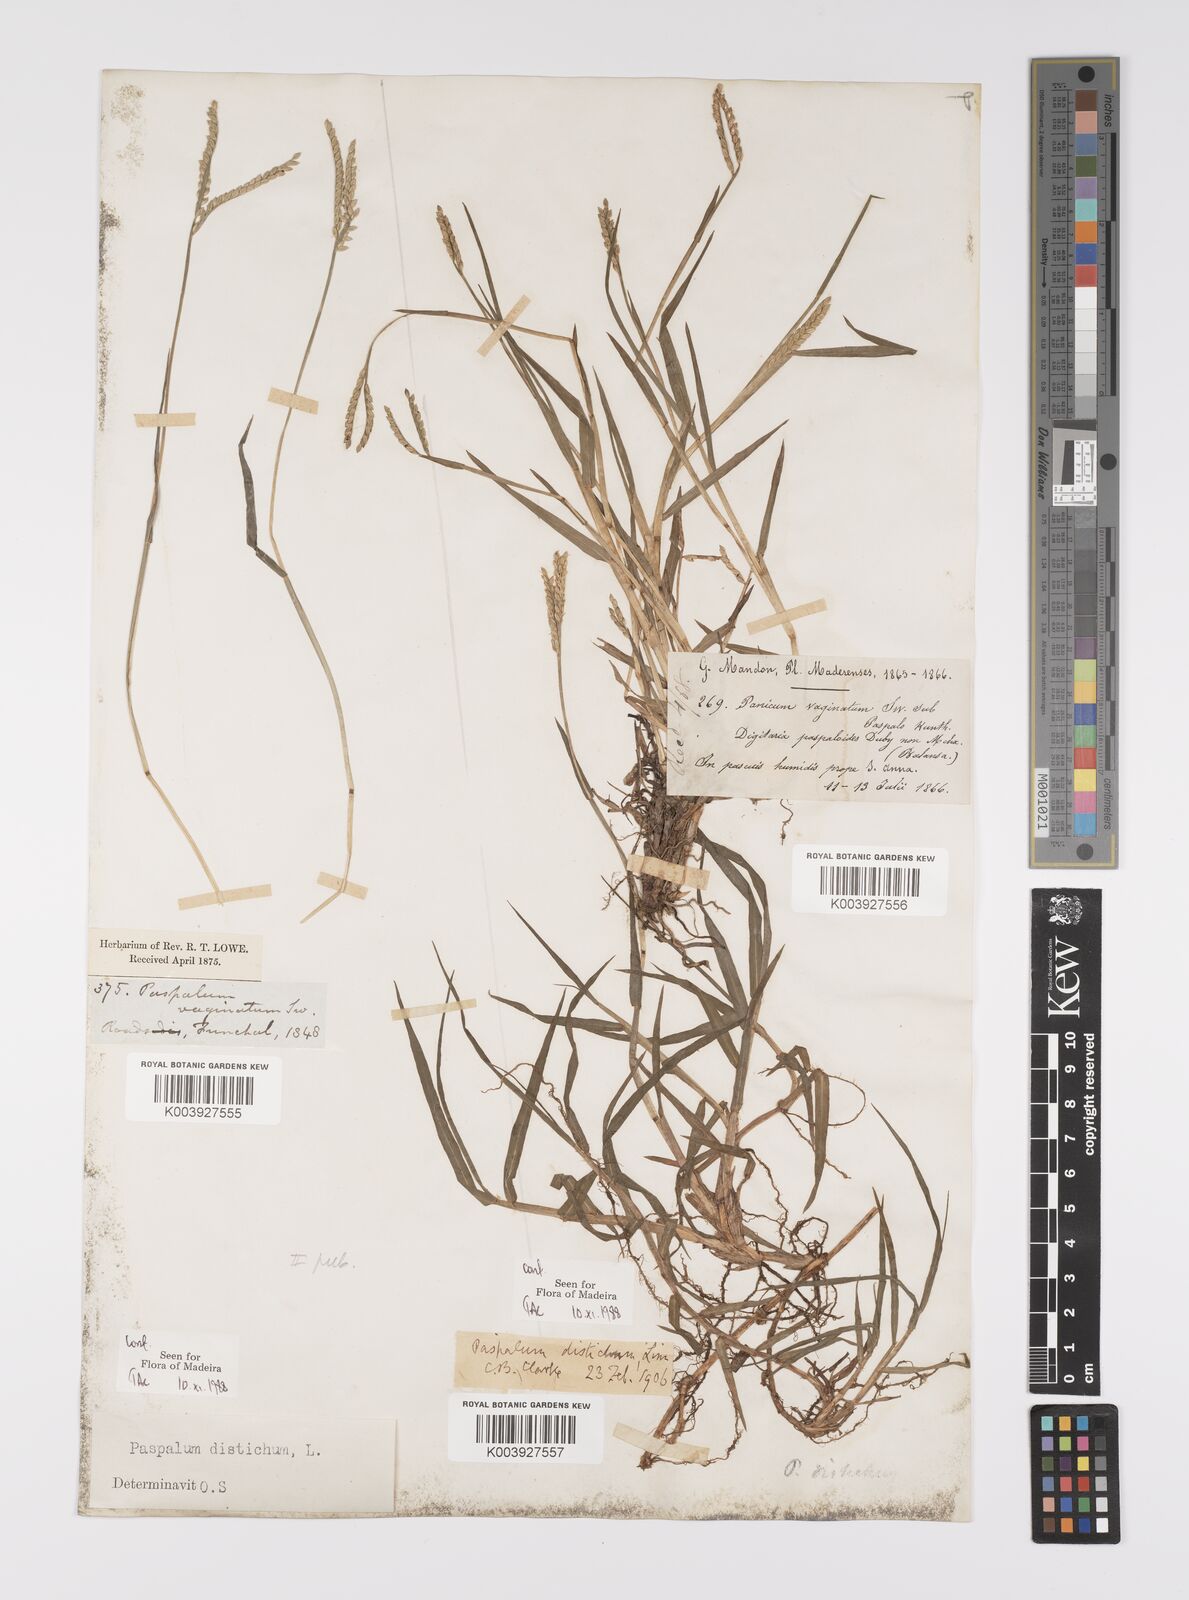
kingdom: Plantae
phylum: Tracheophyta
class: Liliopsida
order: Poales
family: Poaceae
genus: Paspalum
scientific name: Paspalum distichum
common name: Knotgrass
